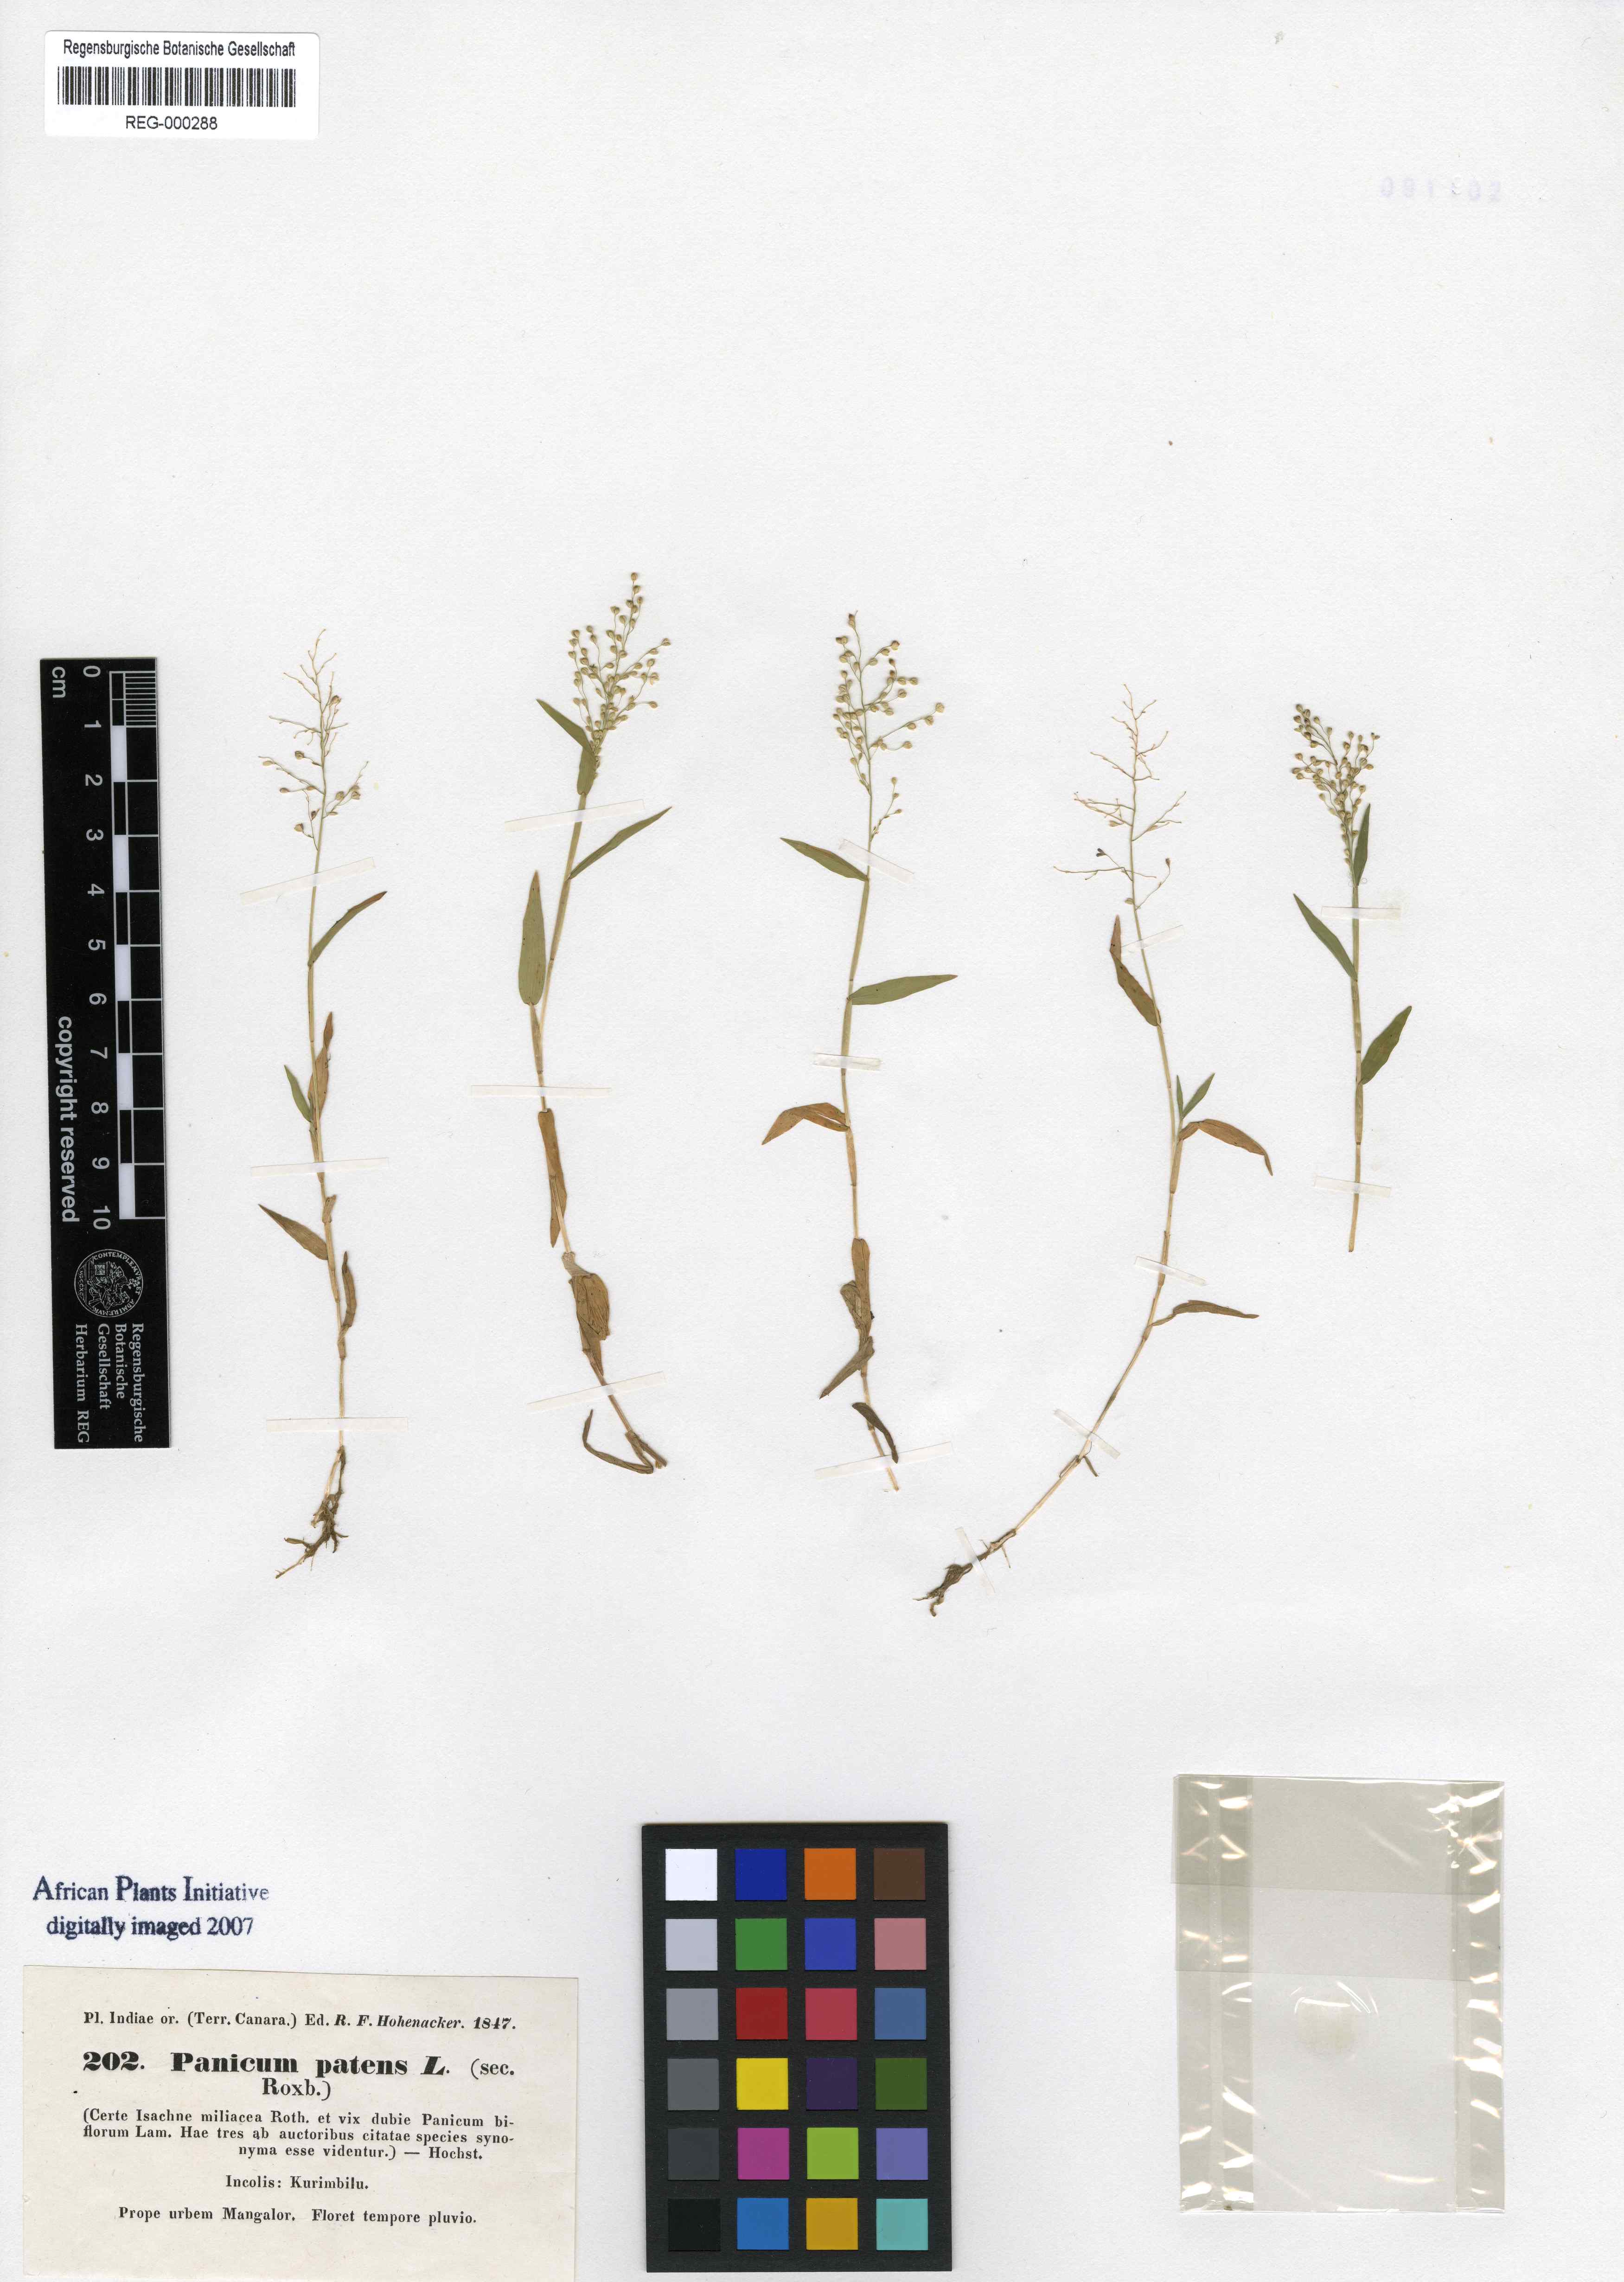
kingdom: Plantae
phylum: Tracheophyta
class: Liliopsida
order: Poales
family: Poaceae
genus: Cyrtococcum
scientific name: Cyrtococcum patens
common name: Broad-leaved bowgrass
